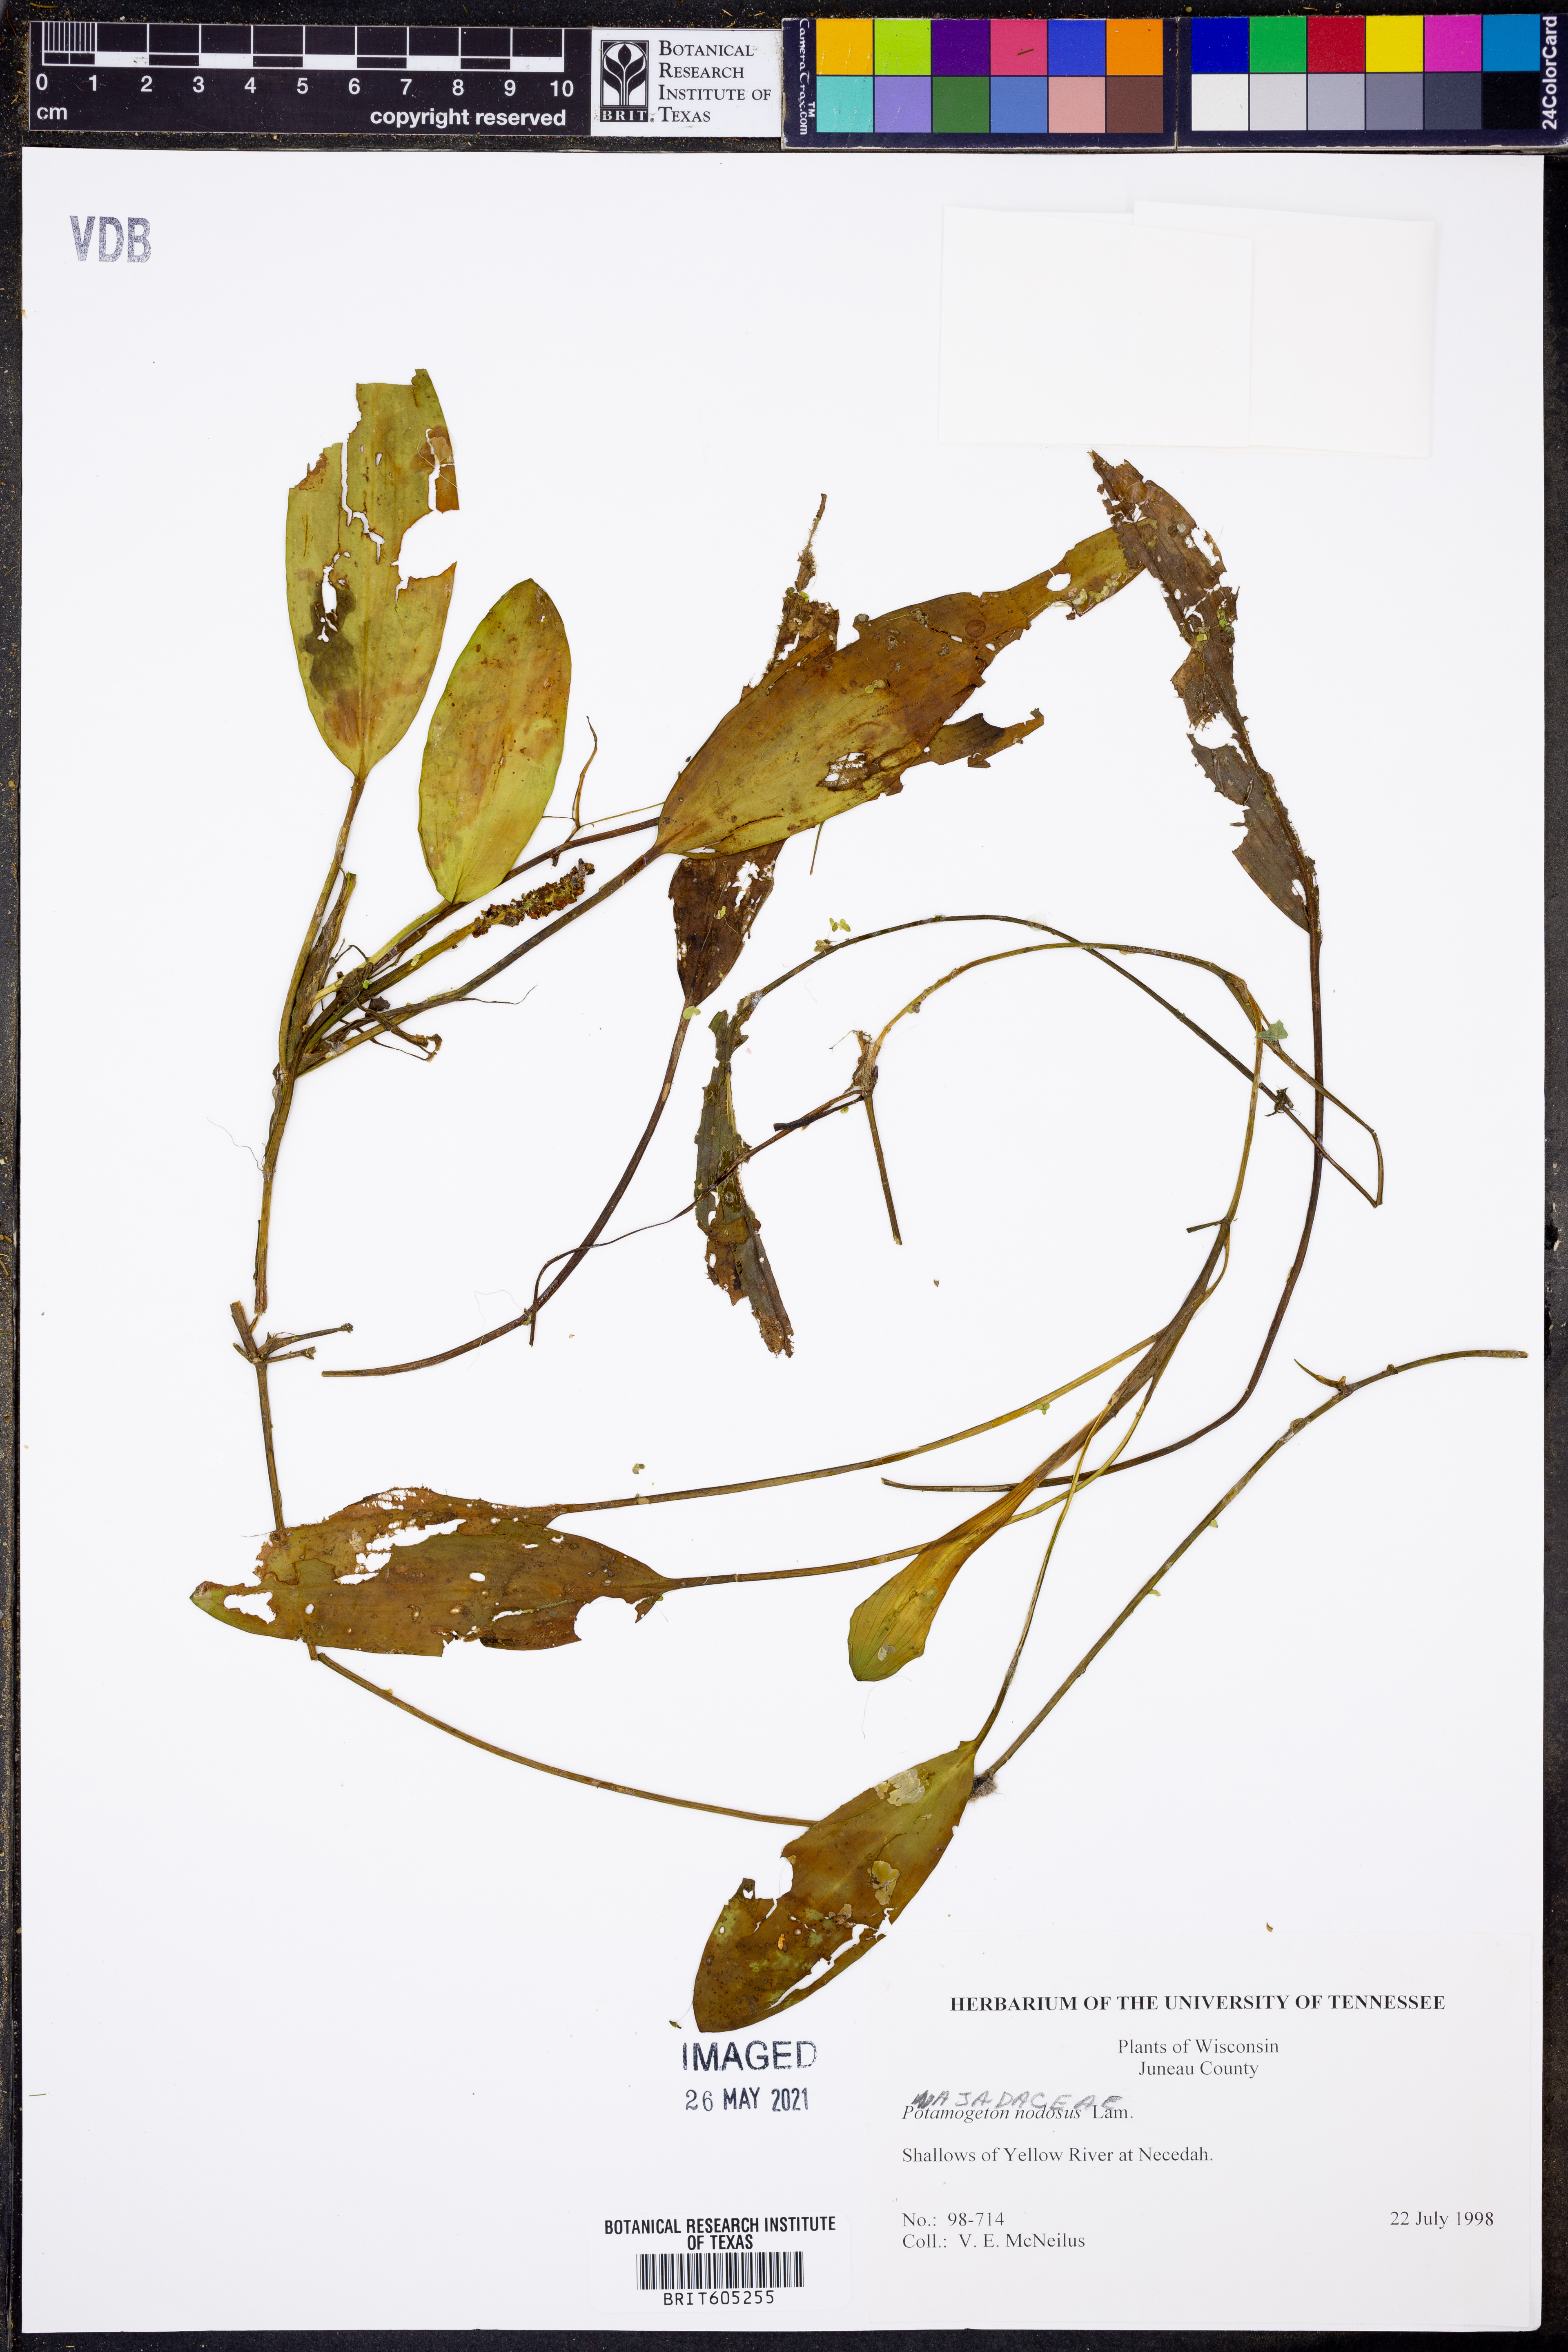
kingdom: Plantae
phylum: Tracheophyta
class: Liliopsida
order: Alismatales
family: Potamogetonaceae
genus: Potamogeton
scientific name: Potamogeton nodosus
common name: Loddon pondweed
